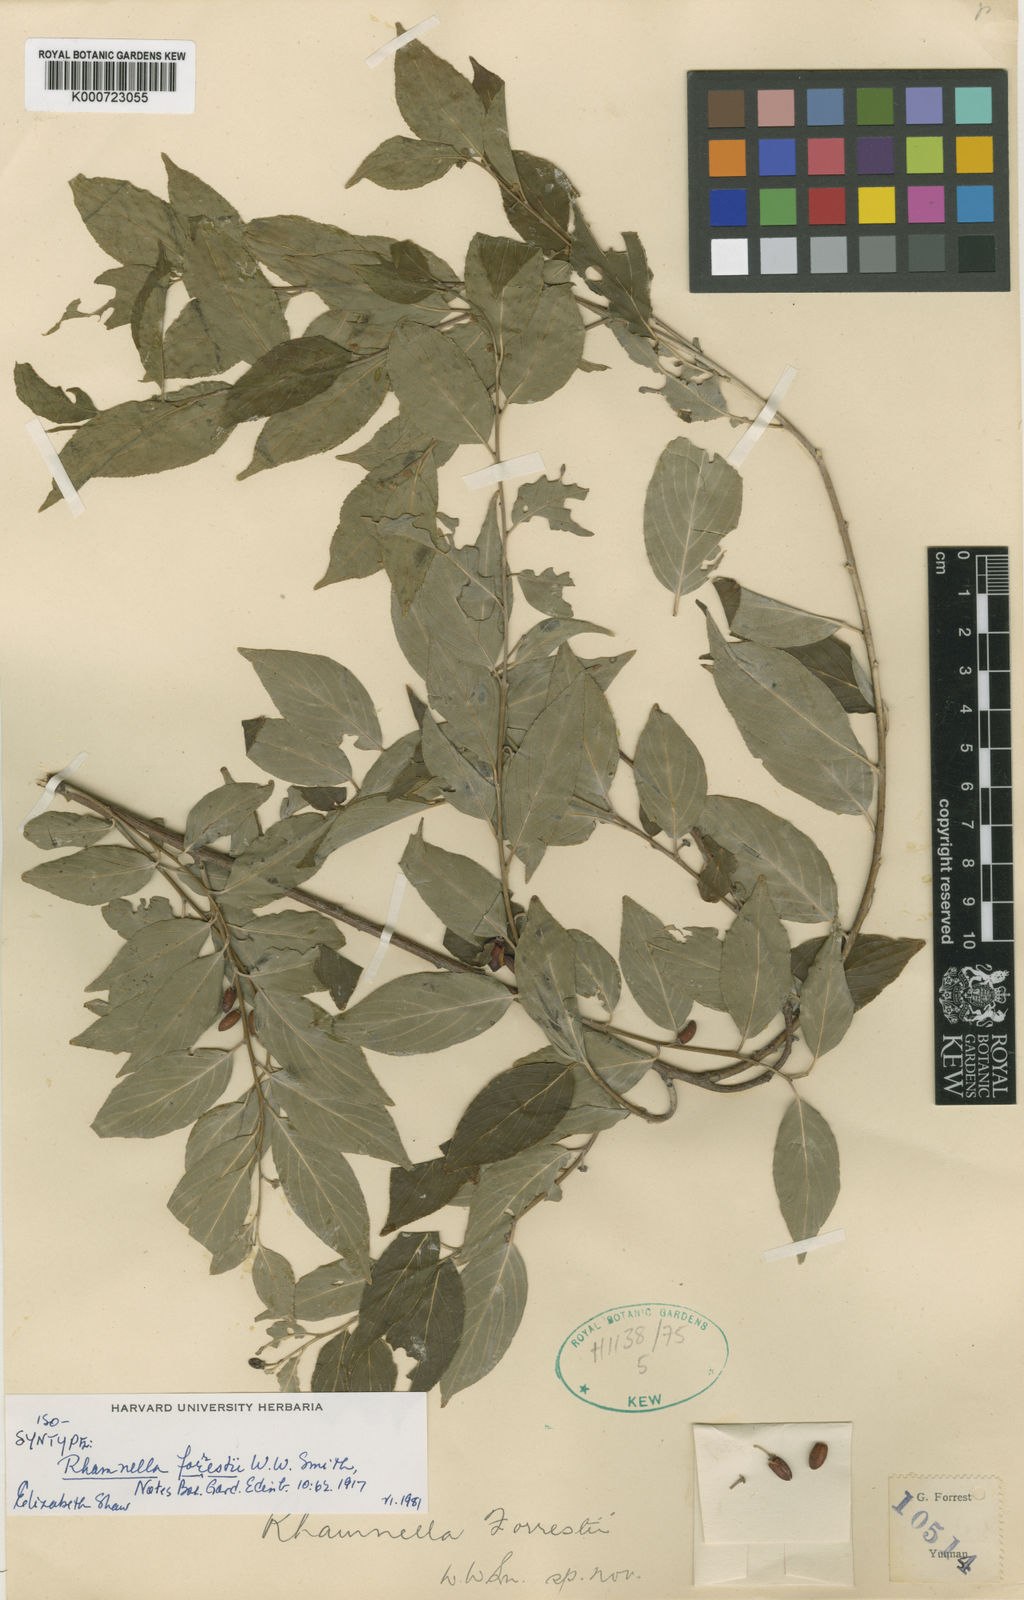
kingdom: Plantae
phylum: Tracheophyta
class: Magnoliopsida
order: Rosales
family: Rhamnaceae
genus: Rhamnella
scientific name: Rhamnella forrestii
